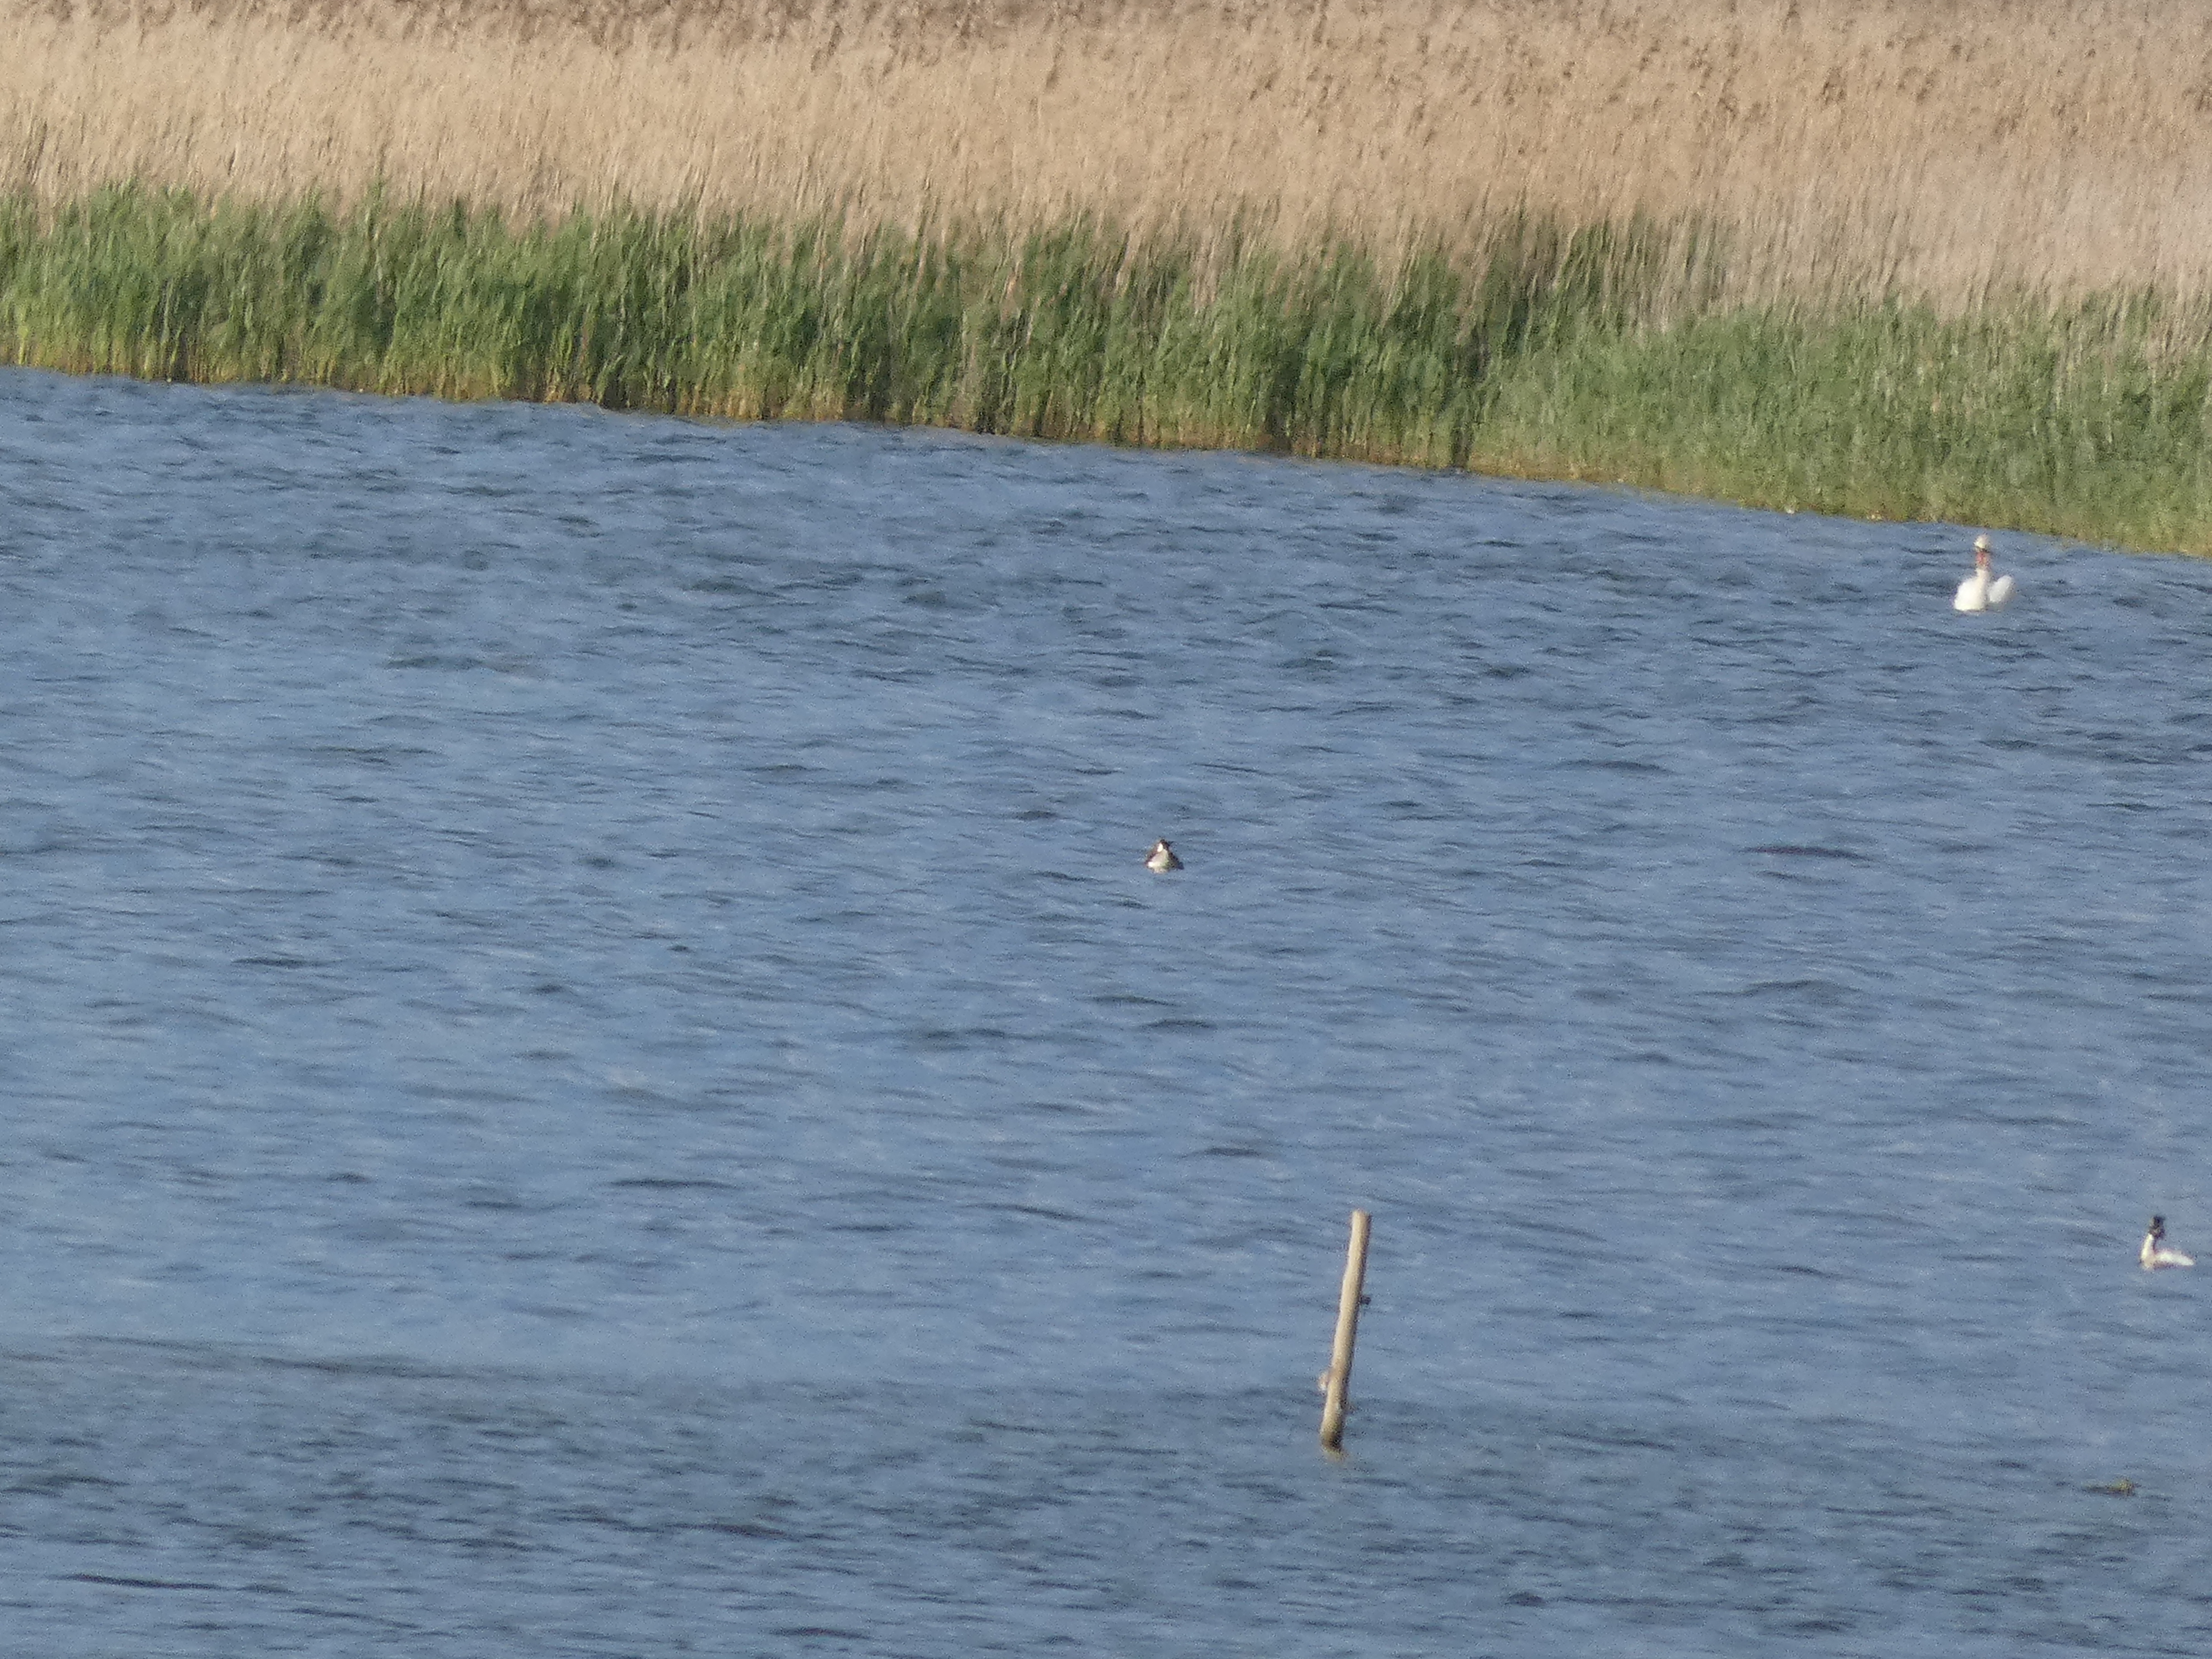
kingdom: Animalia
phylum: Chordata
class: Aves
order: Podicipediformes
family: Podicipedidae
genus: Podiceps
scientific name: Podiceps cristatus
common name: Toppet lappedykker
